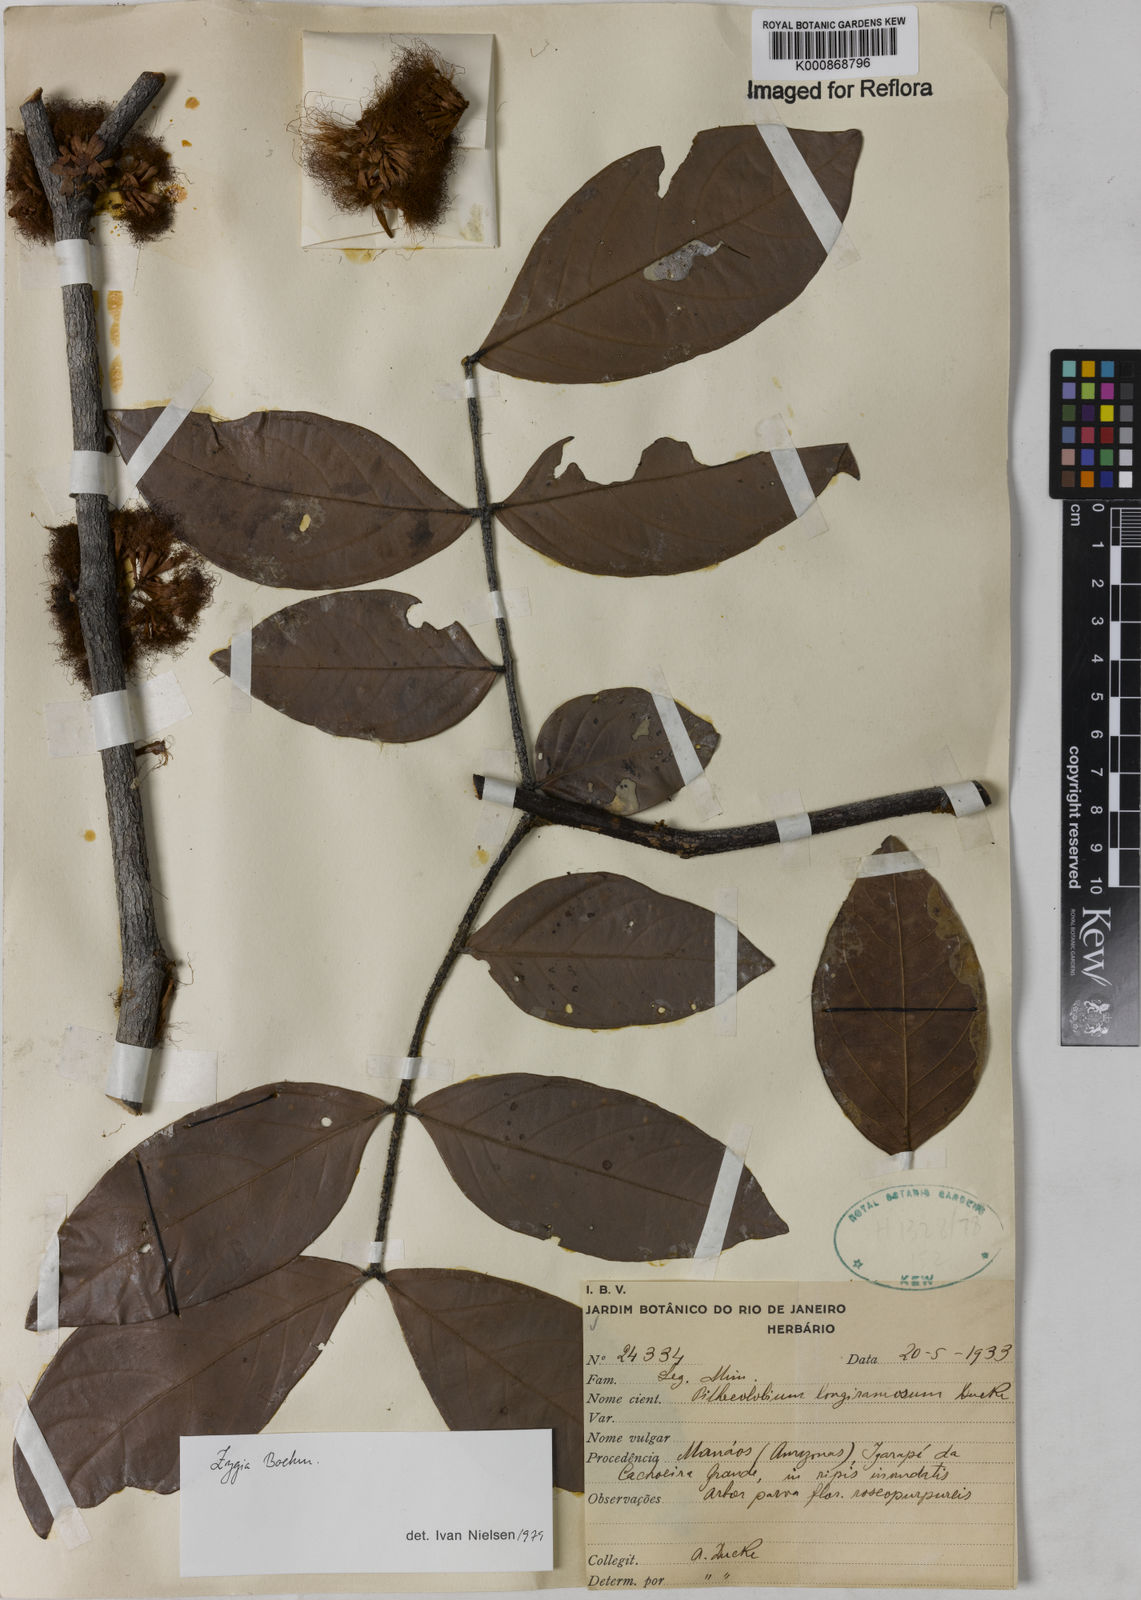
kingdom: Plantae
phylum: Tracheophyta
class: Magnoliopsida
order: Fabales
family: Fabaceae
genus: Zygia
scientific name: Zygia inaequalis
